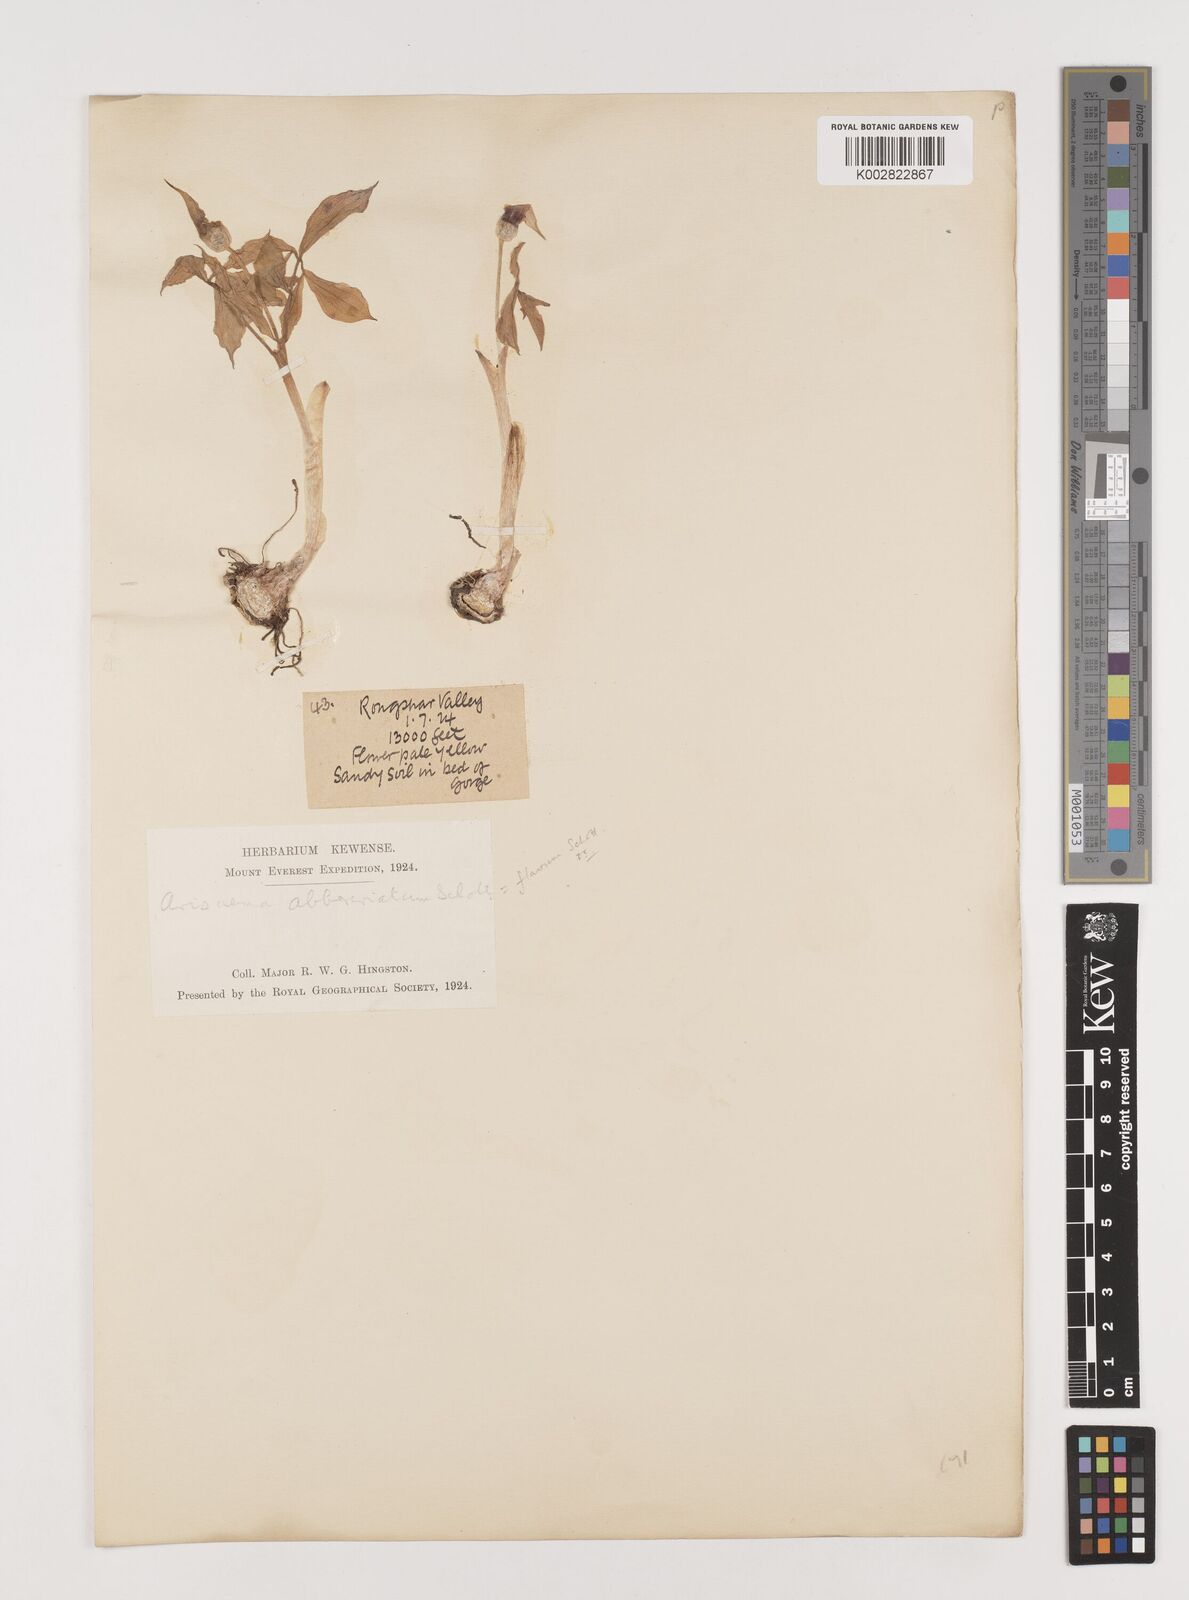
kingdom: Plantae
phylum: Tracheophyta
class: Liliopsida
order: Alismatales
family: Araceae
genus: Arisaema
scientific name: Arisaema flavum
